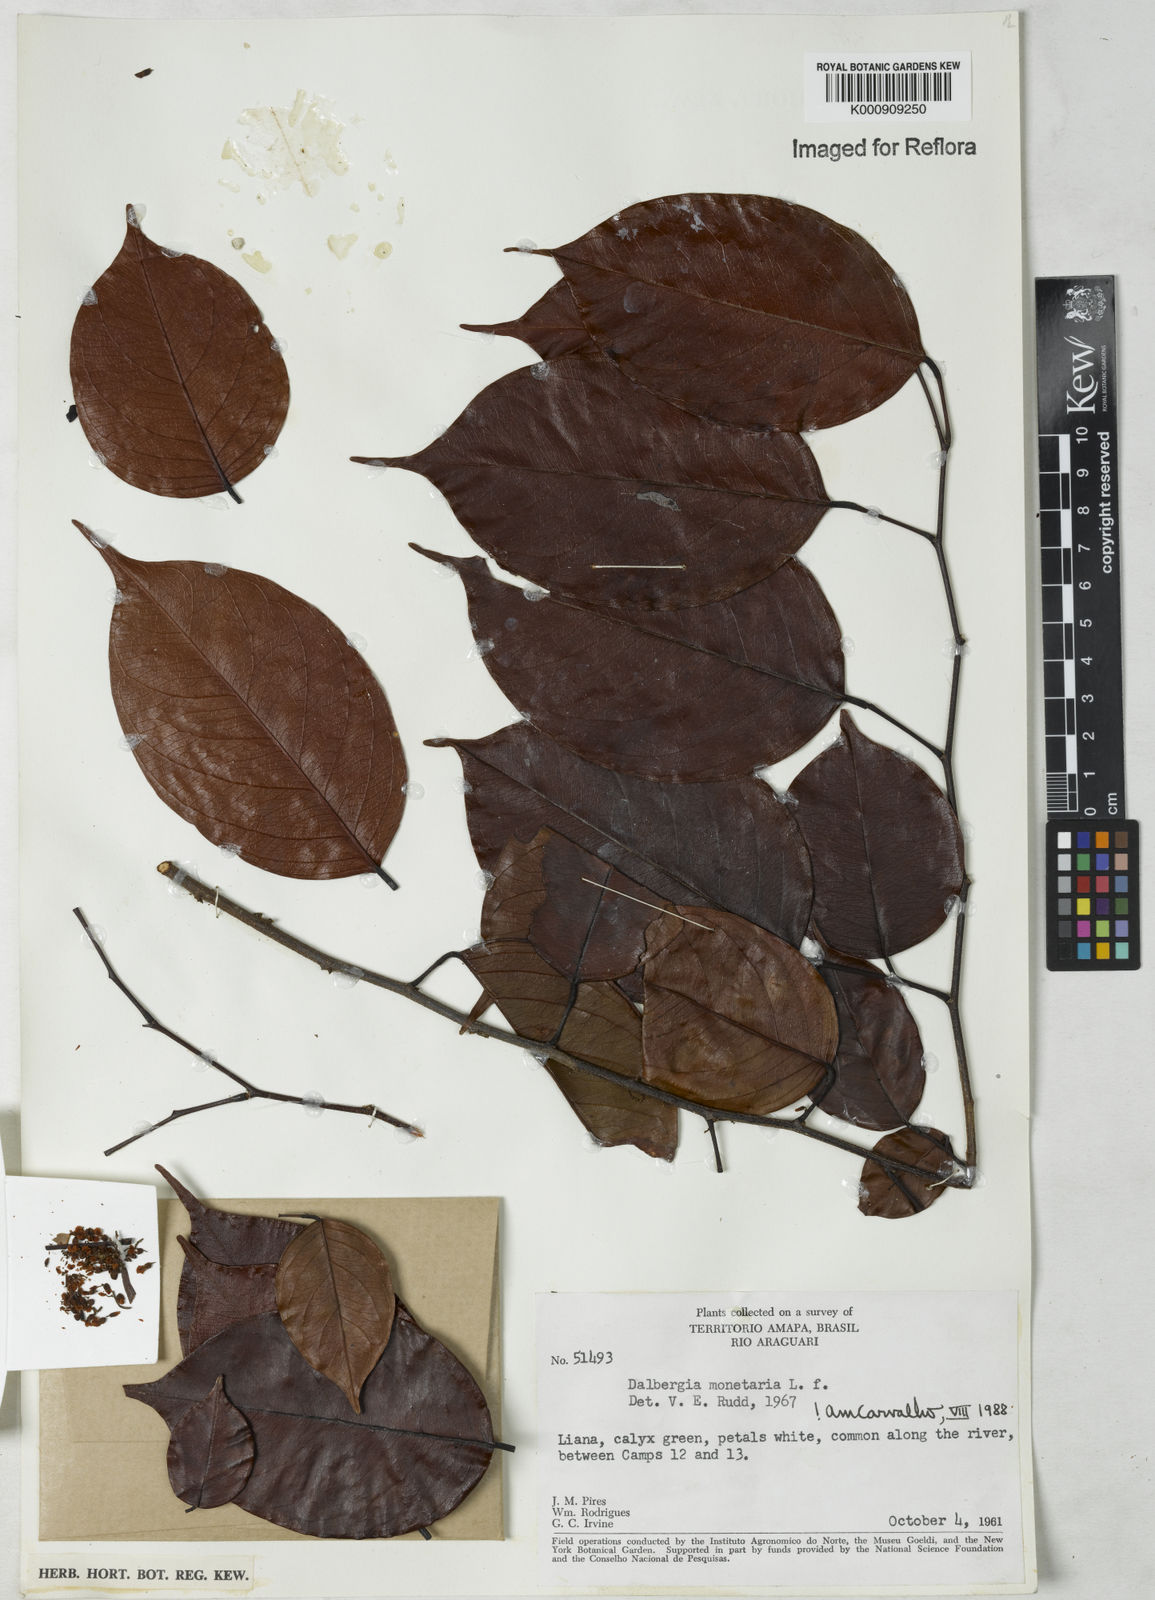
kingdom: Plantae
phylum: Tracheophyta
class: Magnoliopsida
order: Fabales
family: Fabaceae
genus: Dalbergia
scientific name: Dalbergia ovalis
